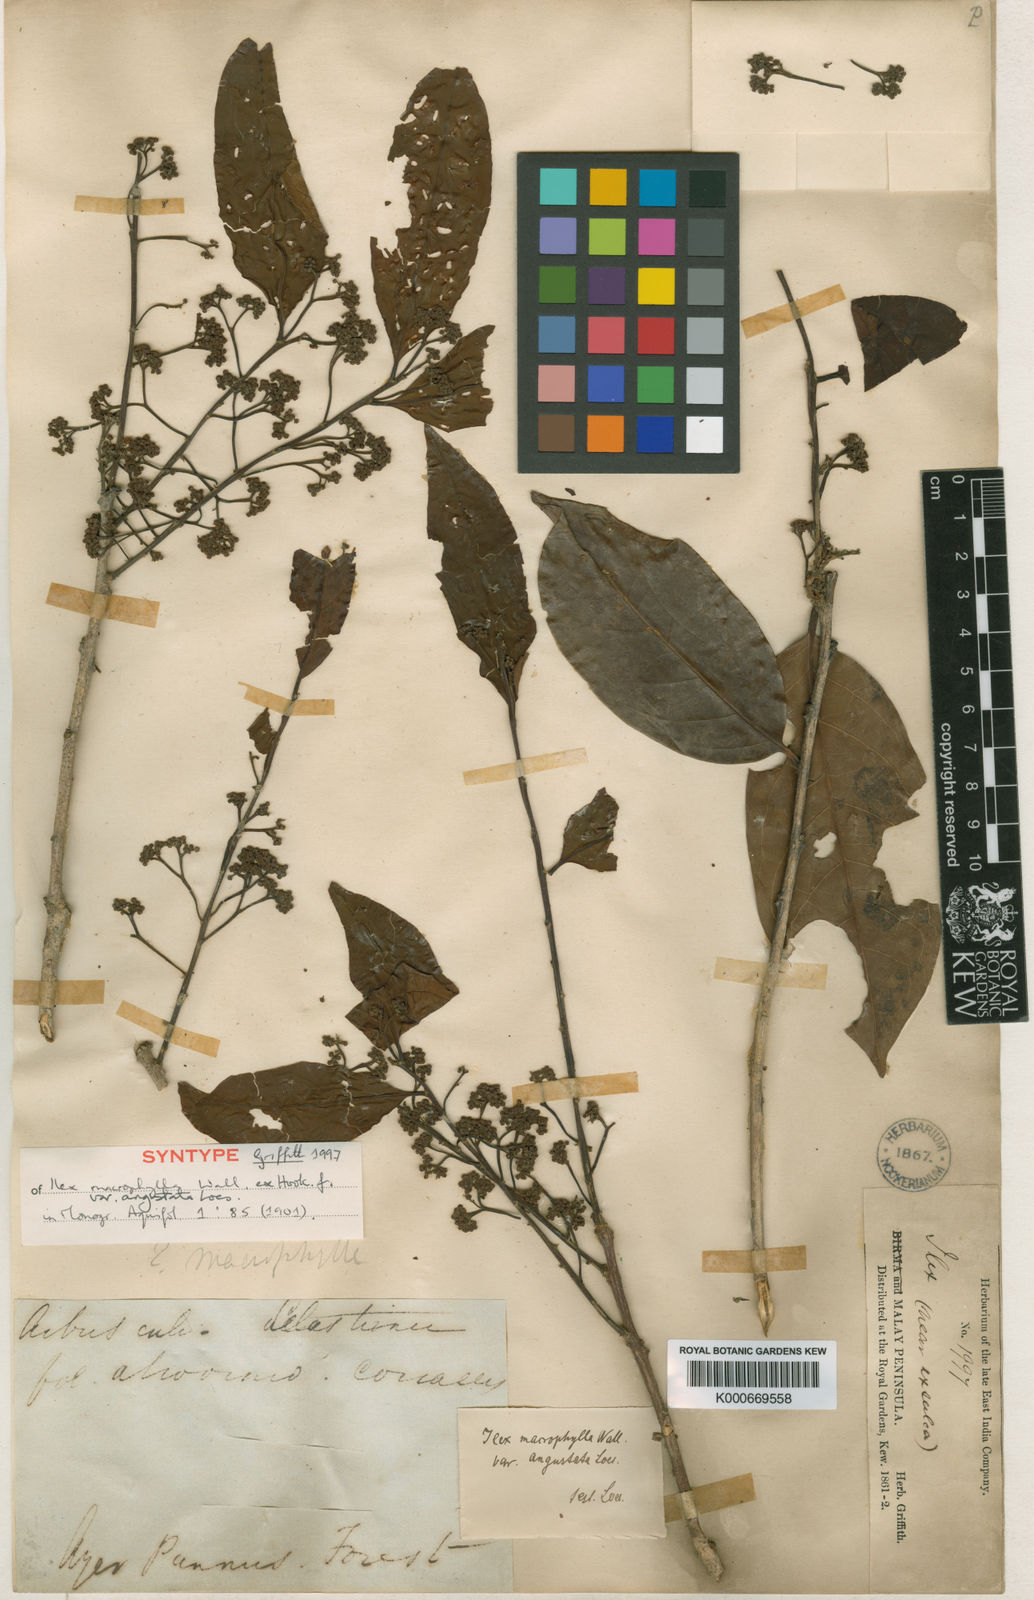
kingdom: Plantae
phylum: Tracheophyta
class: Magnoliopsida
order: Aquifoliales
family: Aquifoliaceae
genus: Ilex
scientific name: Ilex
